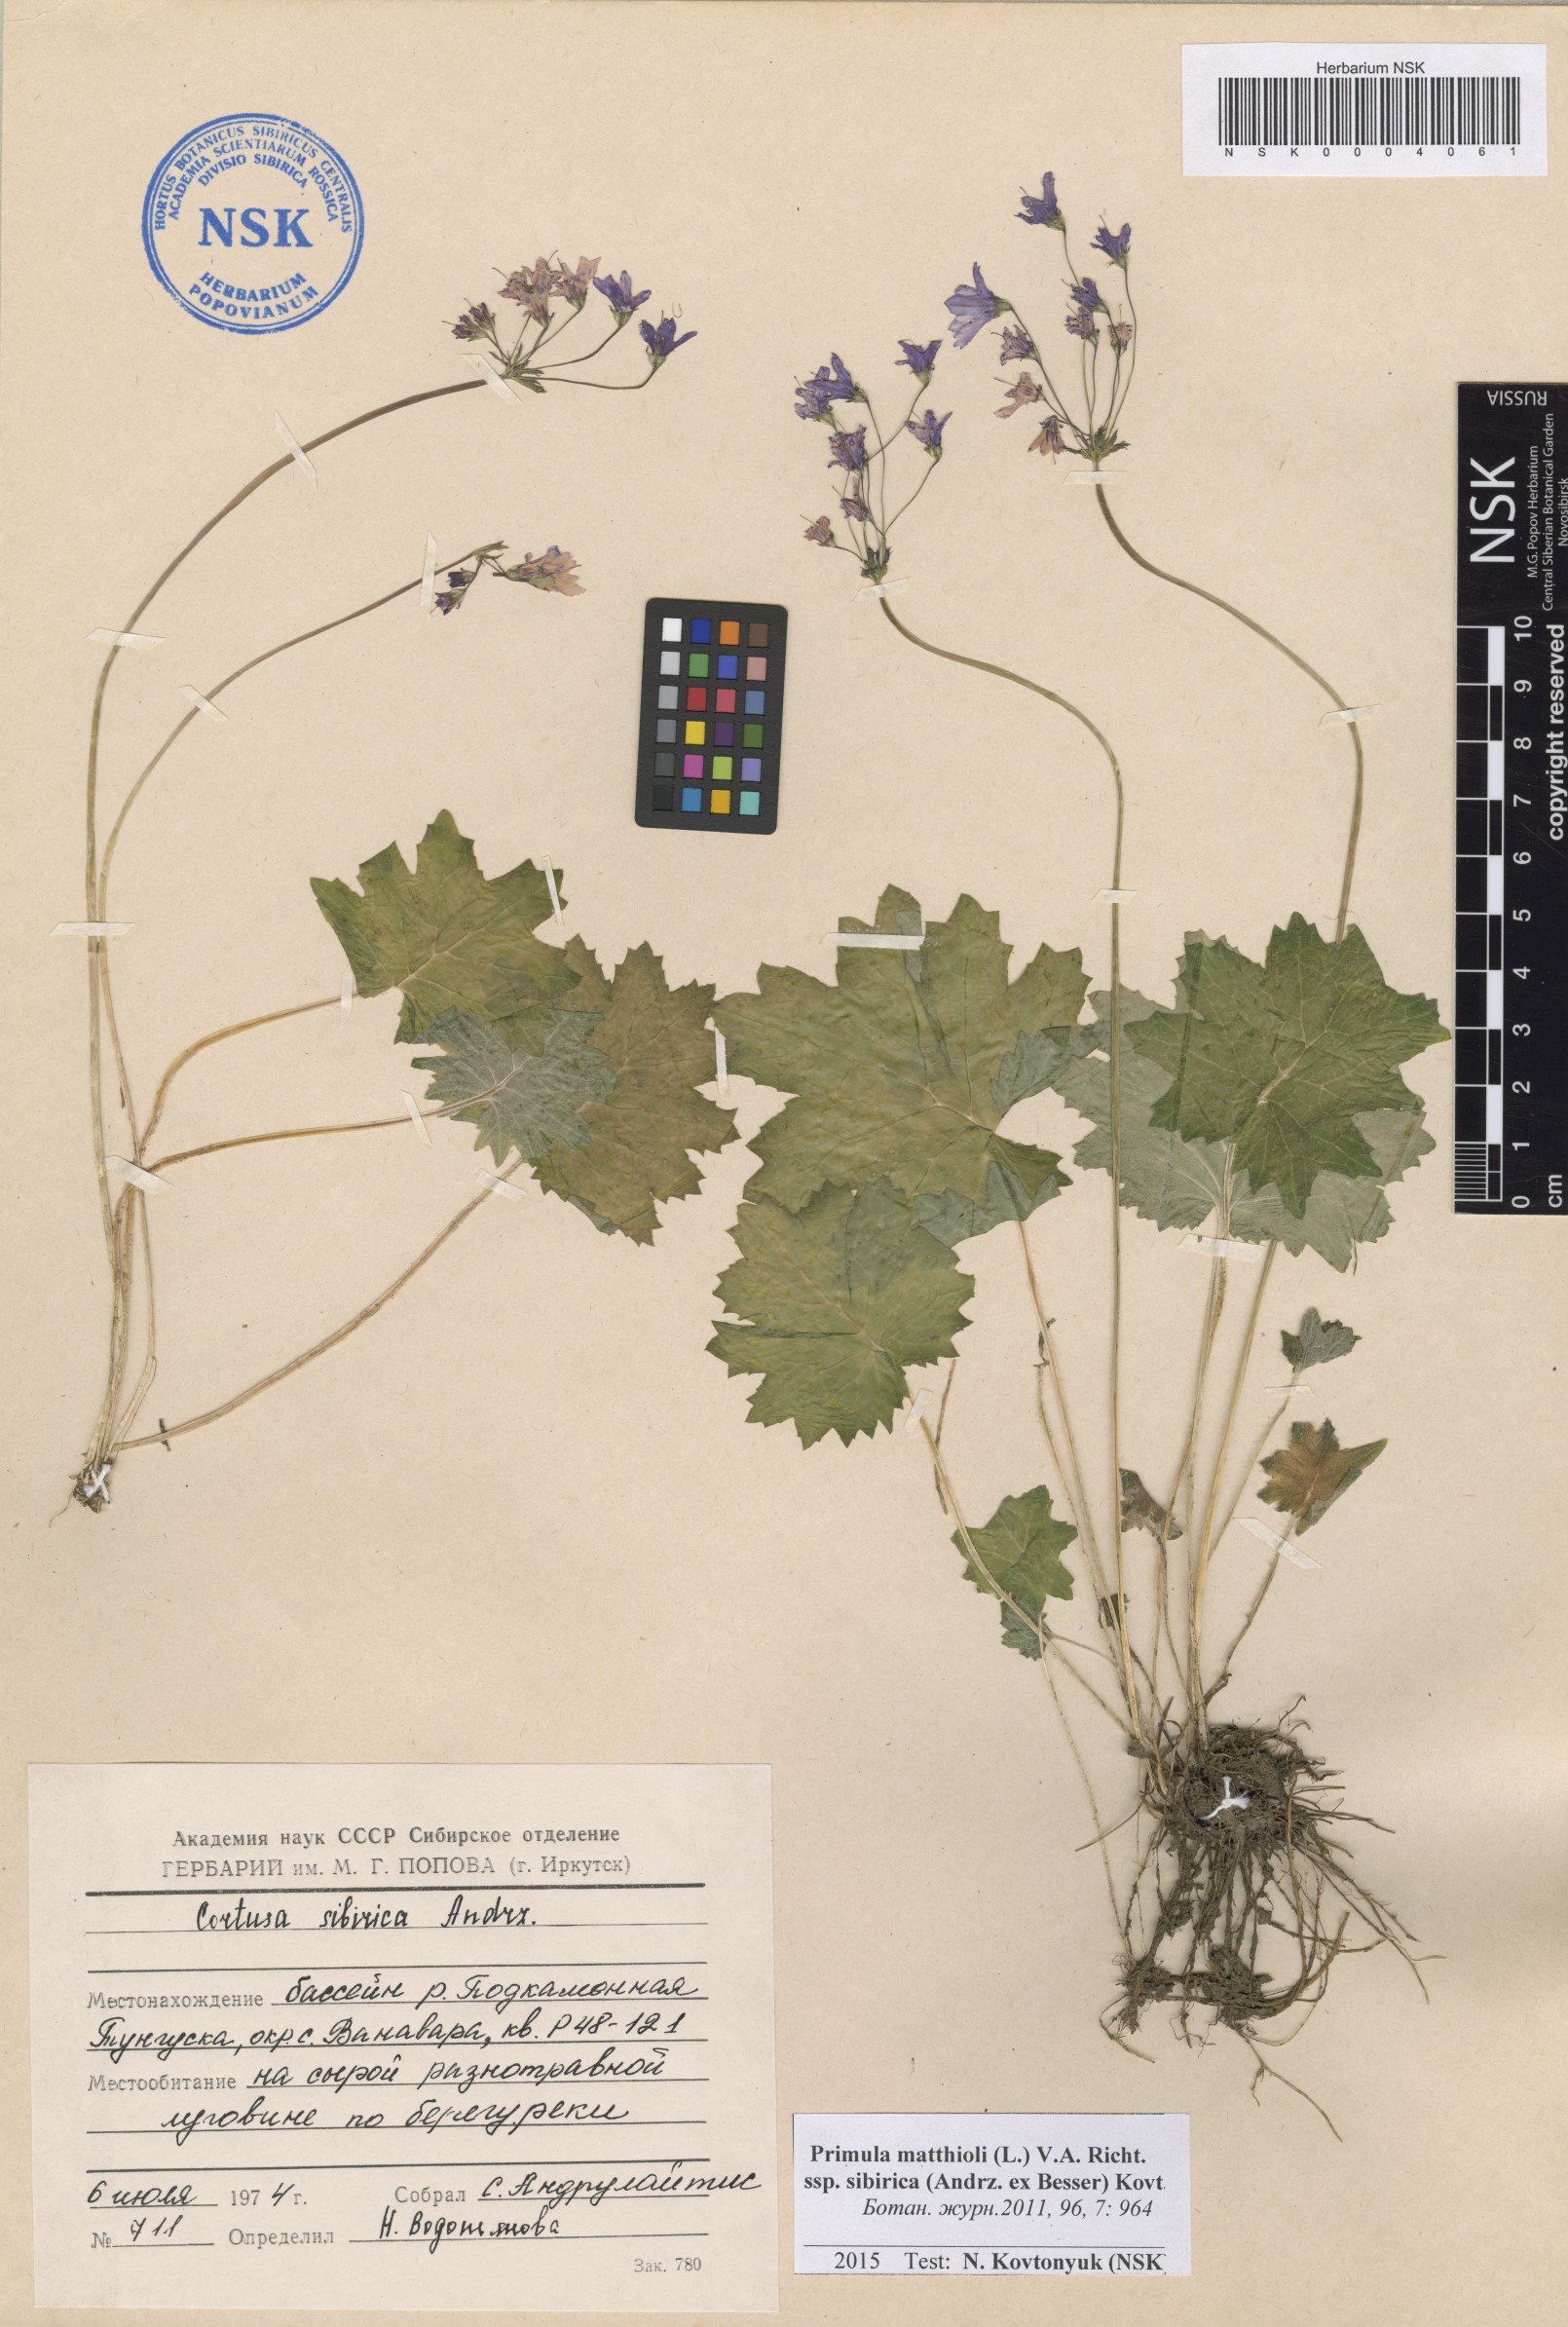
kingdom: Plantae
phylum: Tracheophyta
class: Magnoliopsida
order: Ericales
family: Primulaceae
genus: Primula
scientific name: Primula matthioli
